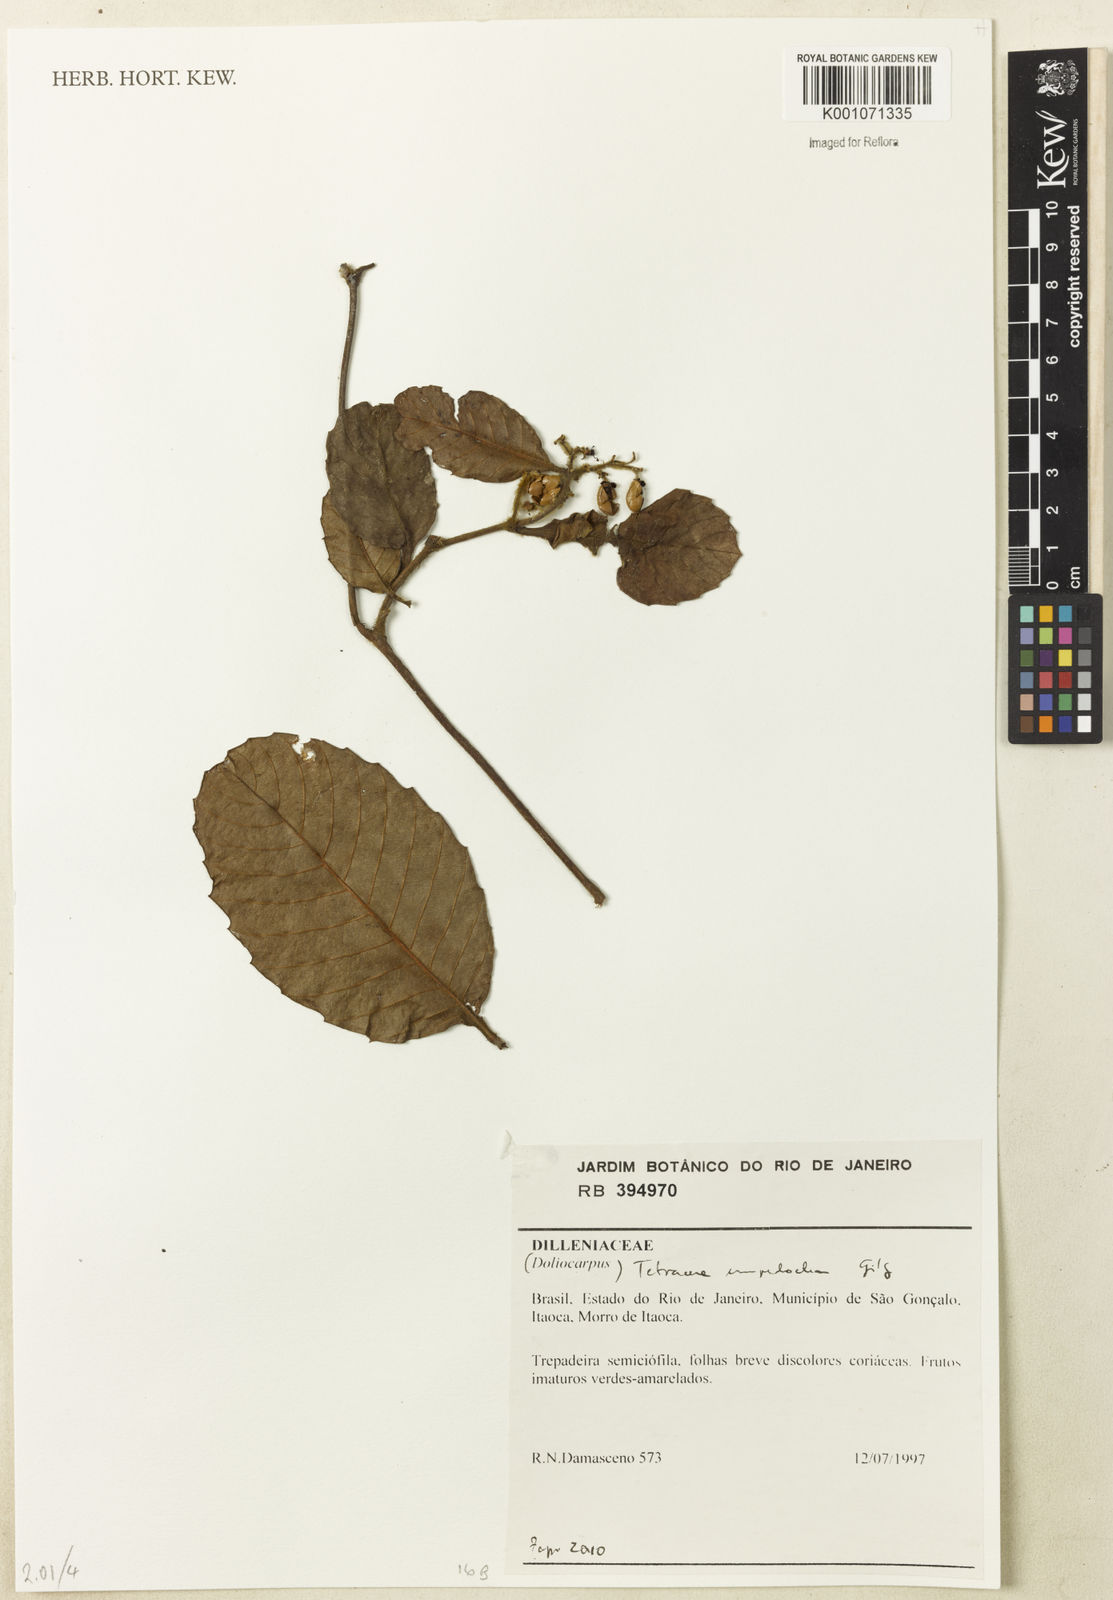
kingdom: Plantae
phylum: Tracheophyta
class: Magnoliopsida
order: Dilleniales
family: Dilleniaceae
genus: Tetracera
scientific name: Tetracera empedoclea
